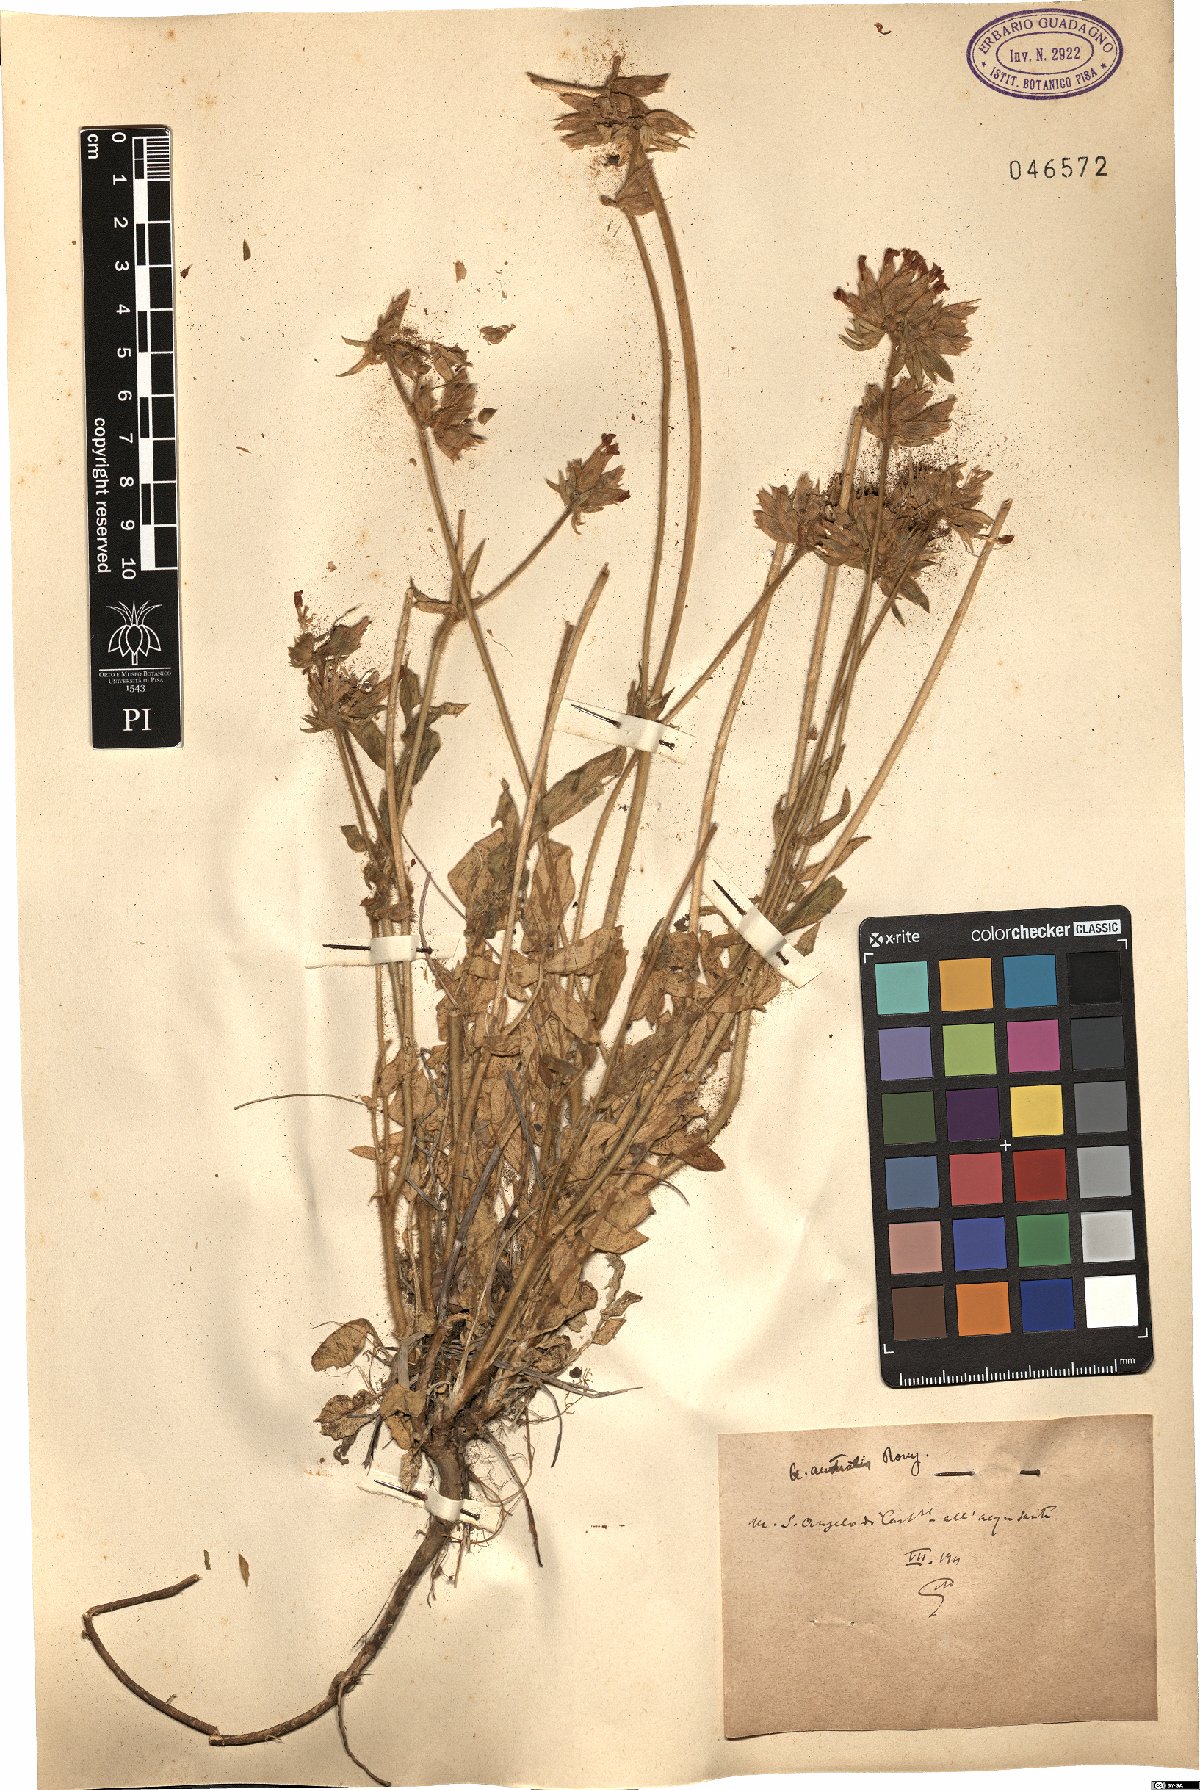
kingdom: Plantae
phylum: Tracheophyta
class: Magnoliopsida
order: Fabales
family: Fabaceae
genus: Anthyllis
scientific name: Anthyllis
